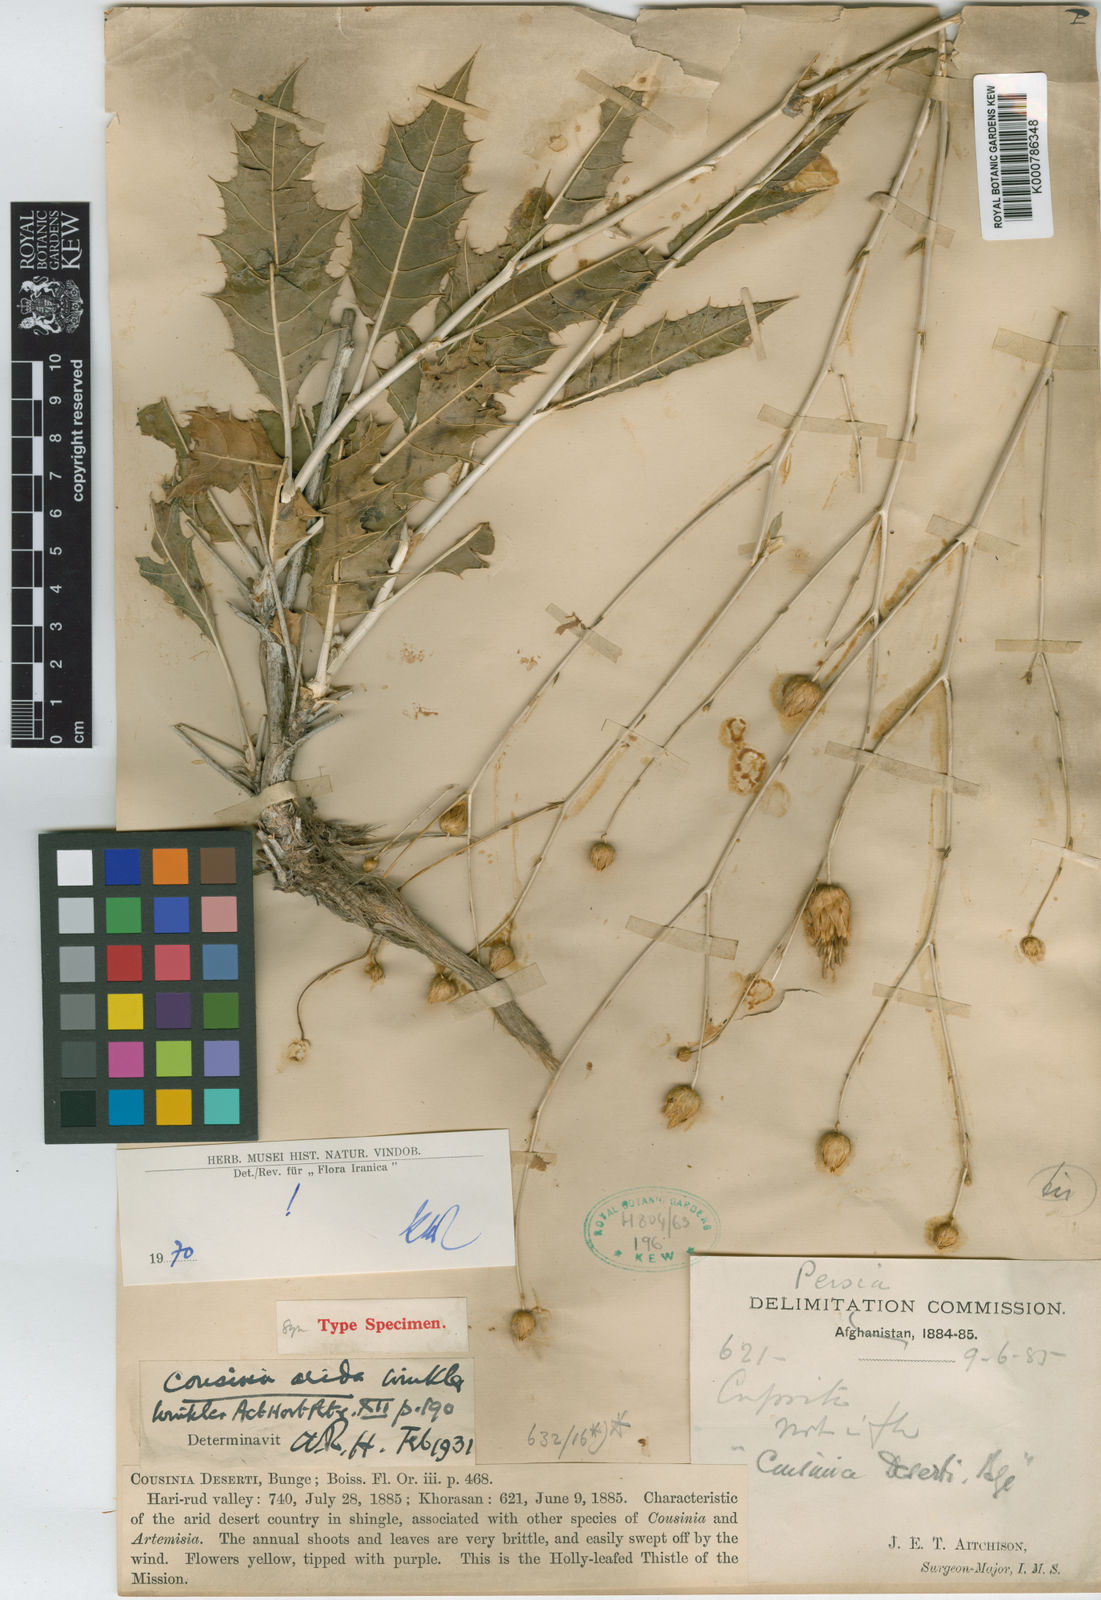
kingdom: Plantae
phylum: Tracheophyta
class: Magnoliopsida
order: Asterales
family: Asteraceae
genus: Cousinia
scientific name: Cousinia arida
